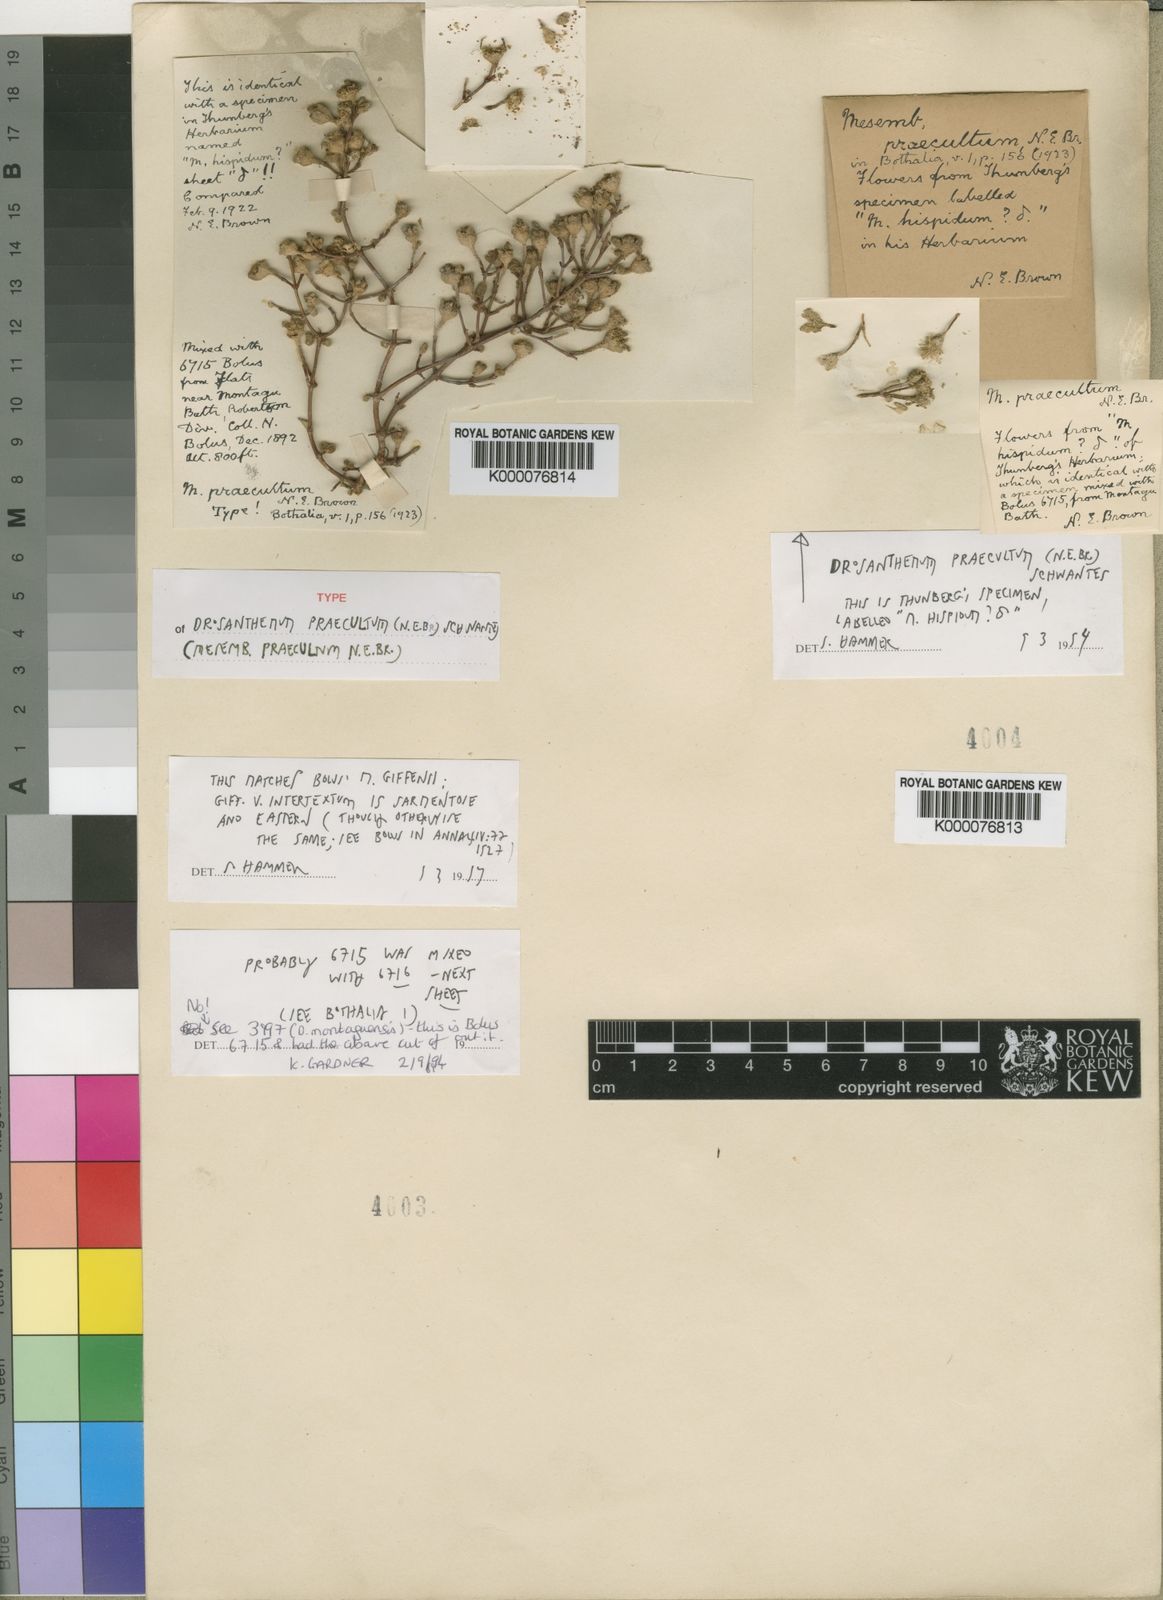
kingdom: Plantae
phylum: Tracheophyta
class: Magnoliopsida
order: Caryophyllales
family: Aizoaceae
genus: Drosanthemum
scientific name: Drosanthemum praecultum
